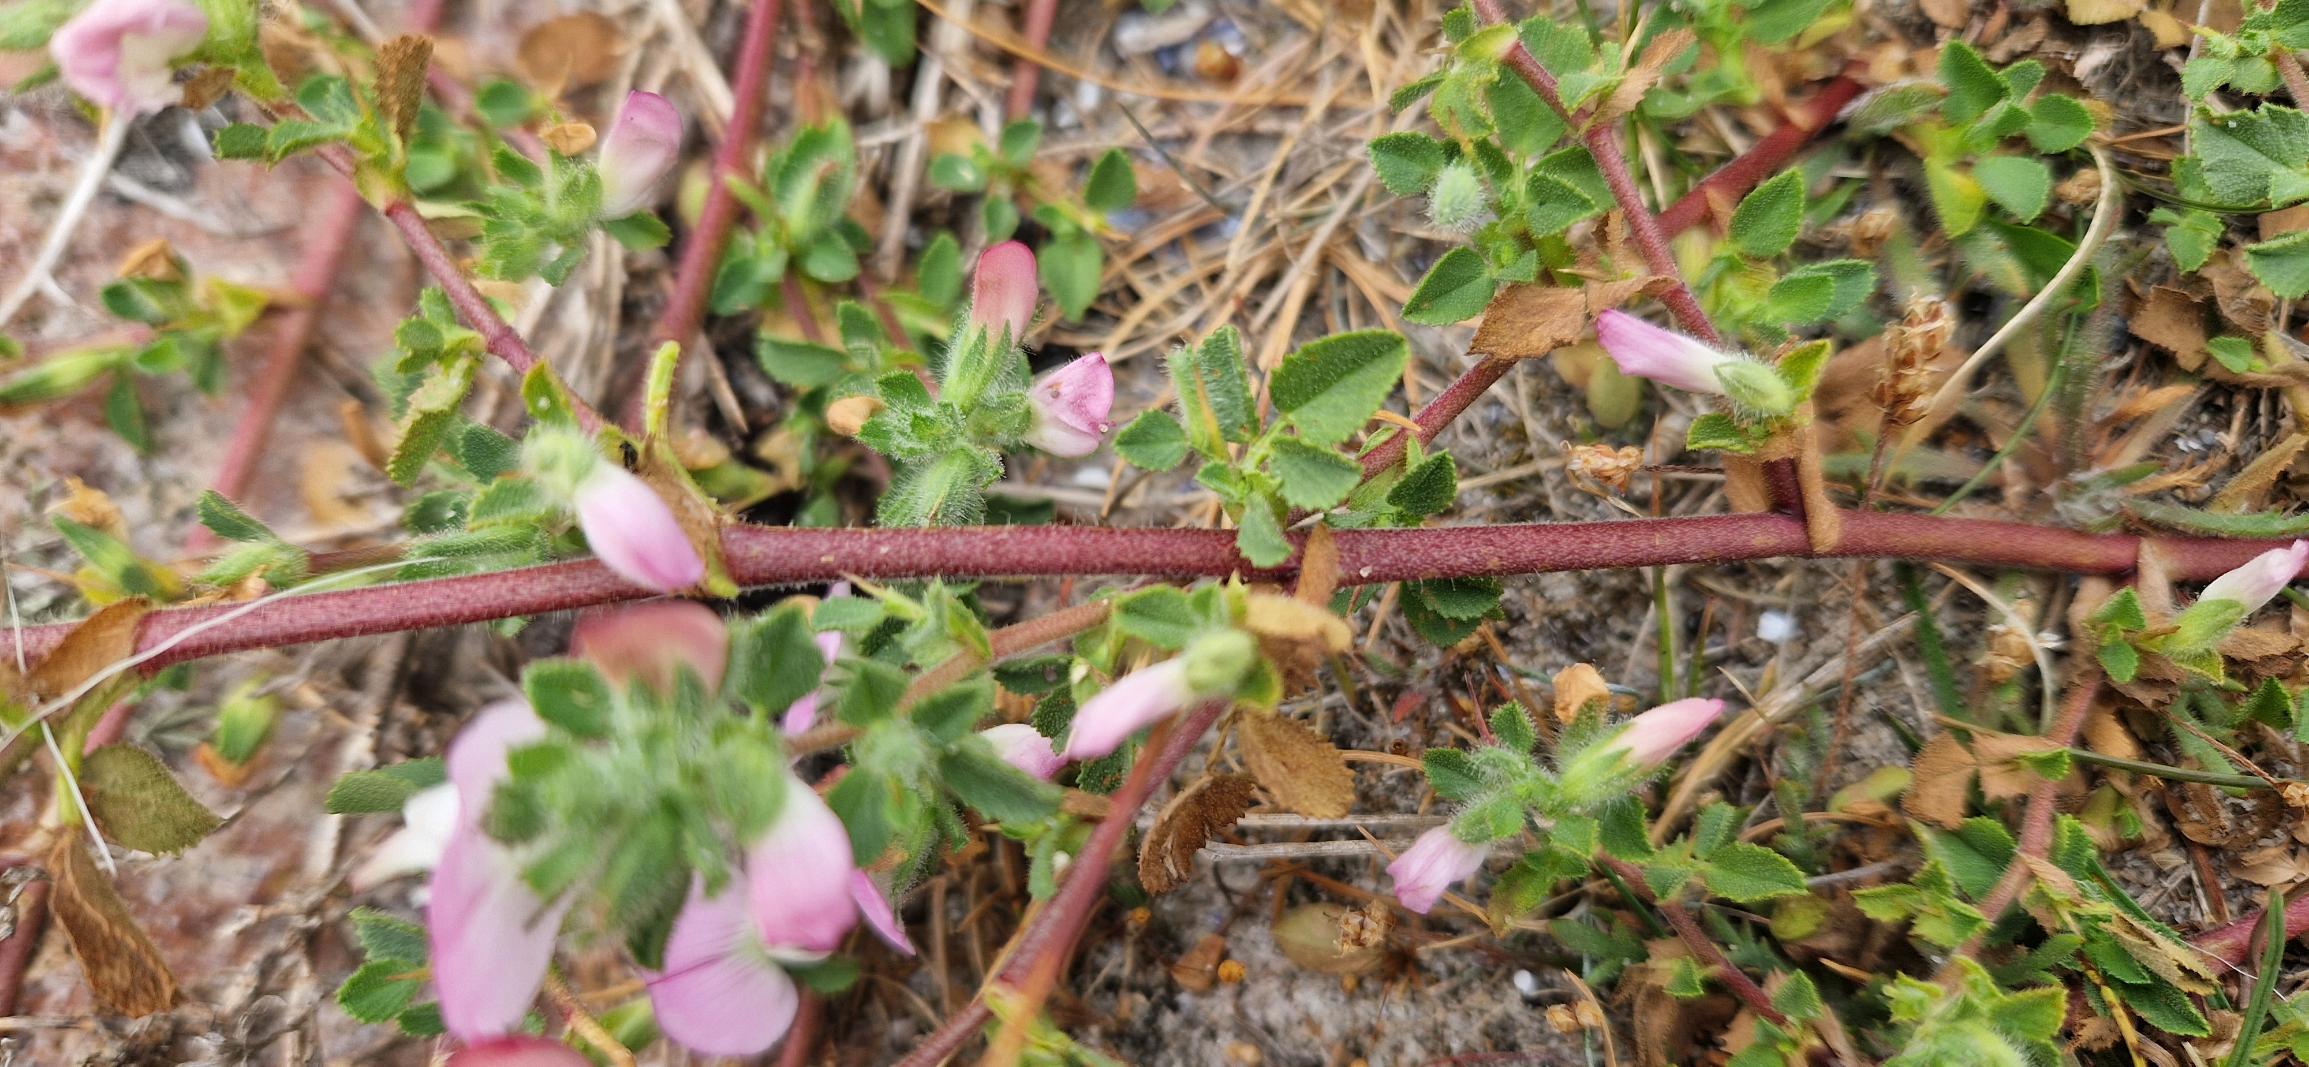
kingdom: Plantae
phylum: Tracheophyta
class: Magnoliopsida
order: Fabales
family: Fabaceae
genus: Ononis
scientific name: Ononis spinosa
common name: Mark-krageklo
